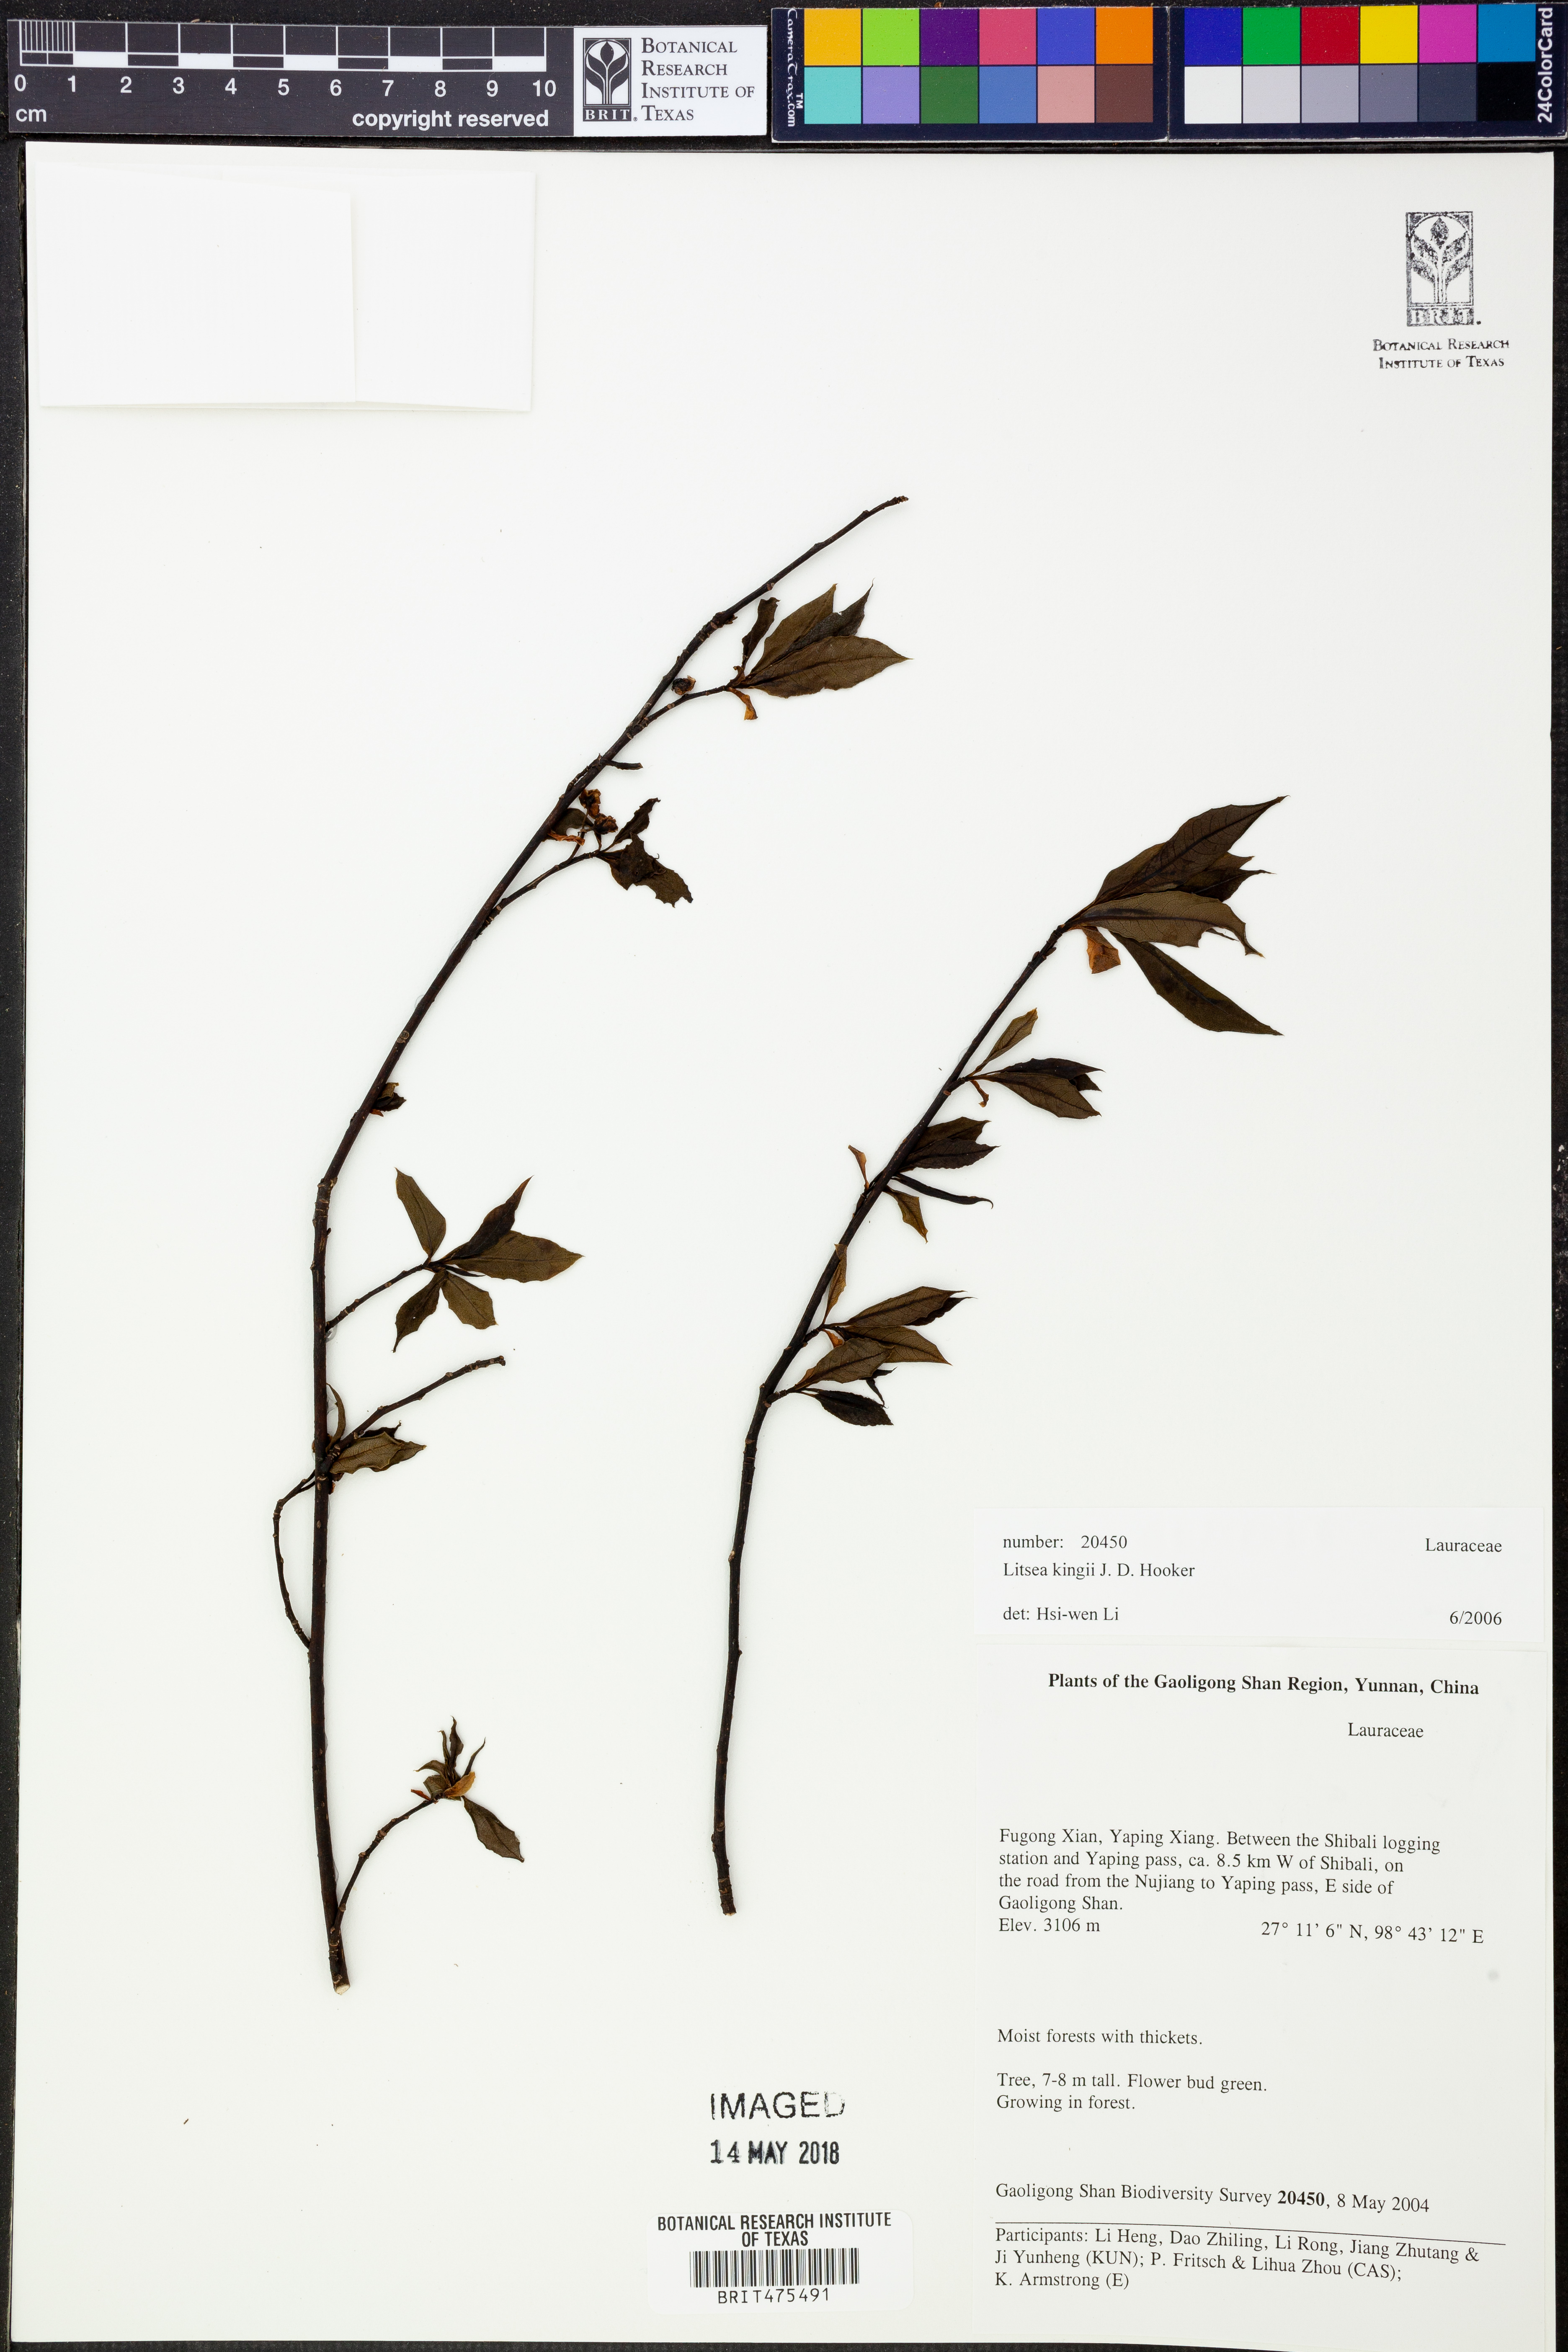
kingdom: Plantae
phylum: Tracheophyta
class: Magnoliopsida
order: Laurales
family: Lauraceae
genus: Litsea
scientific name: Litsea kingii
